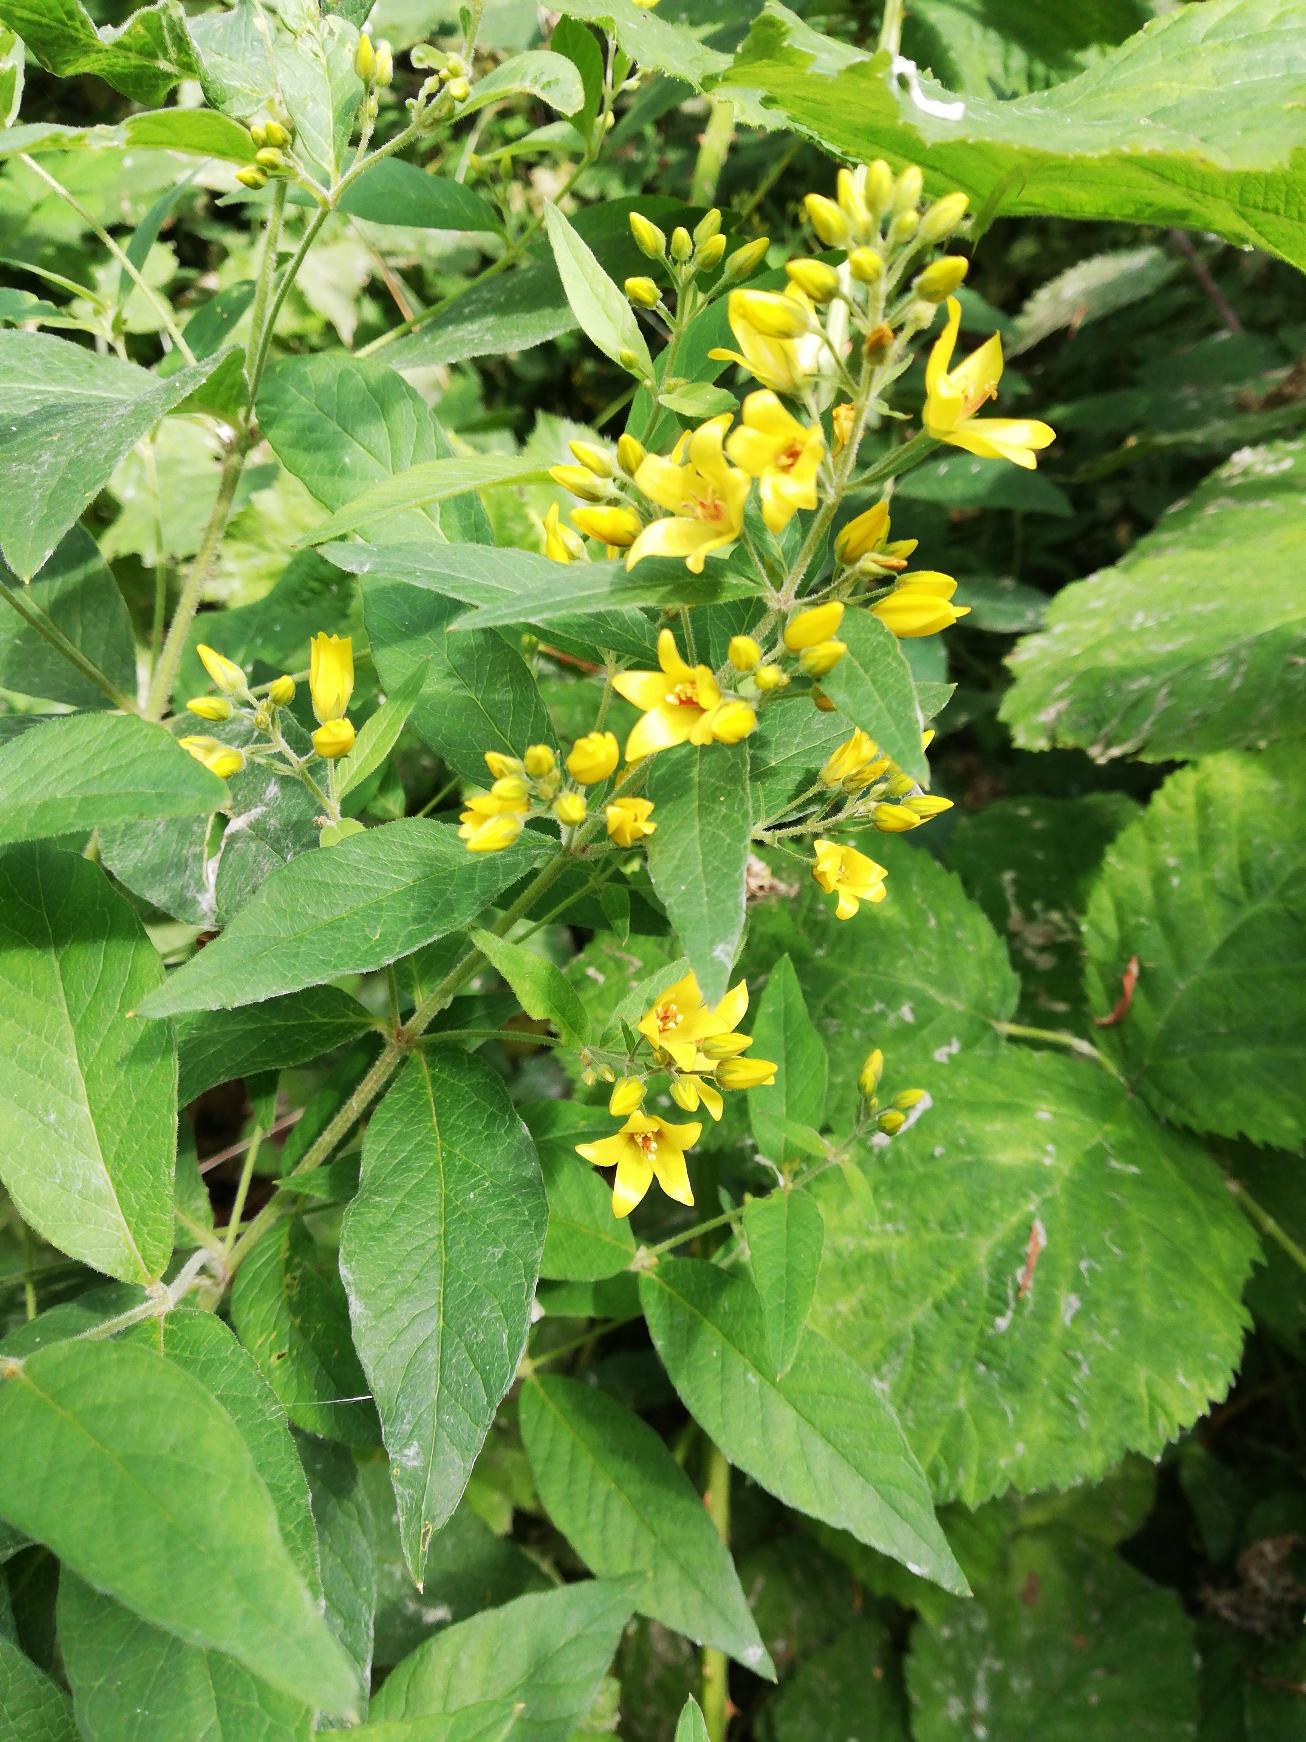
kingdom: Plantae
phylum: Tracheophyta
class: Magnoliopsida
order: Ericales
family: Primulaceae
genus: Lysimachia
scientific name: Lysimachia vulgaris
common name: Almindelig fredløs
